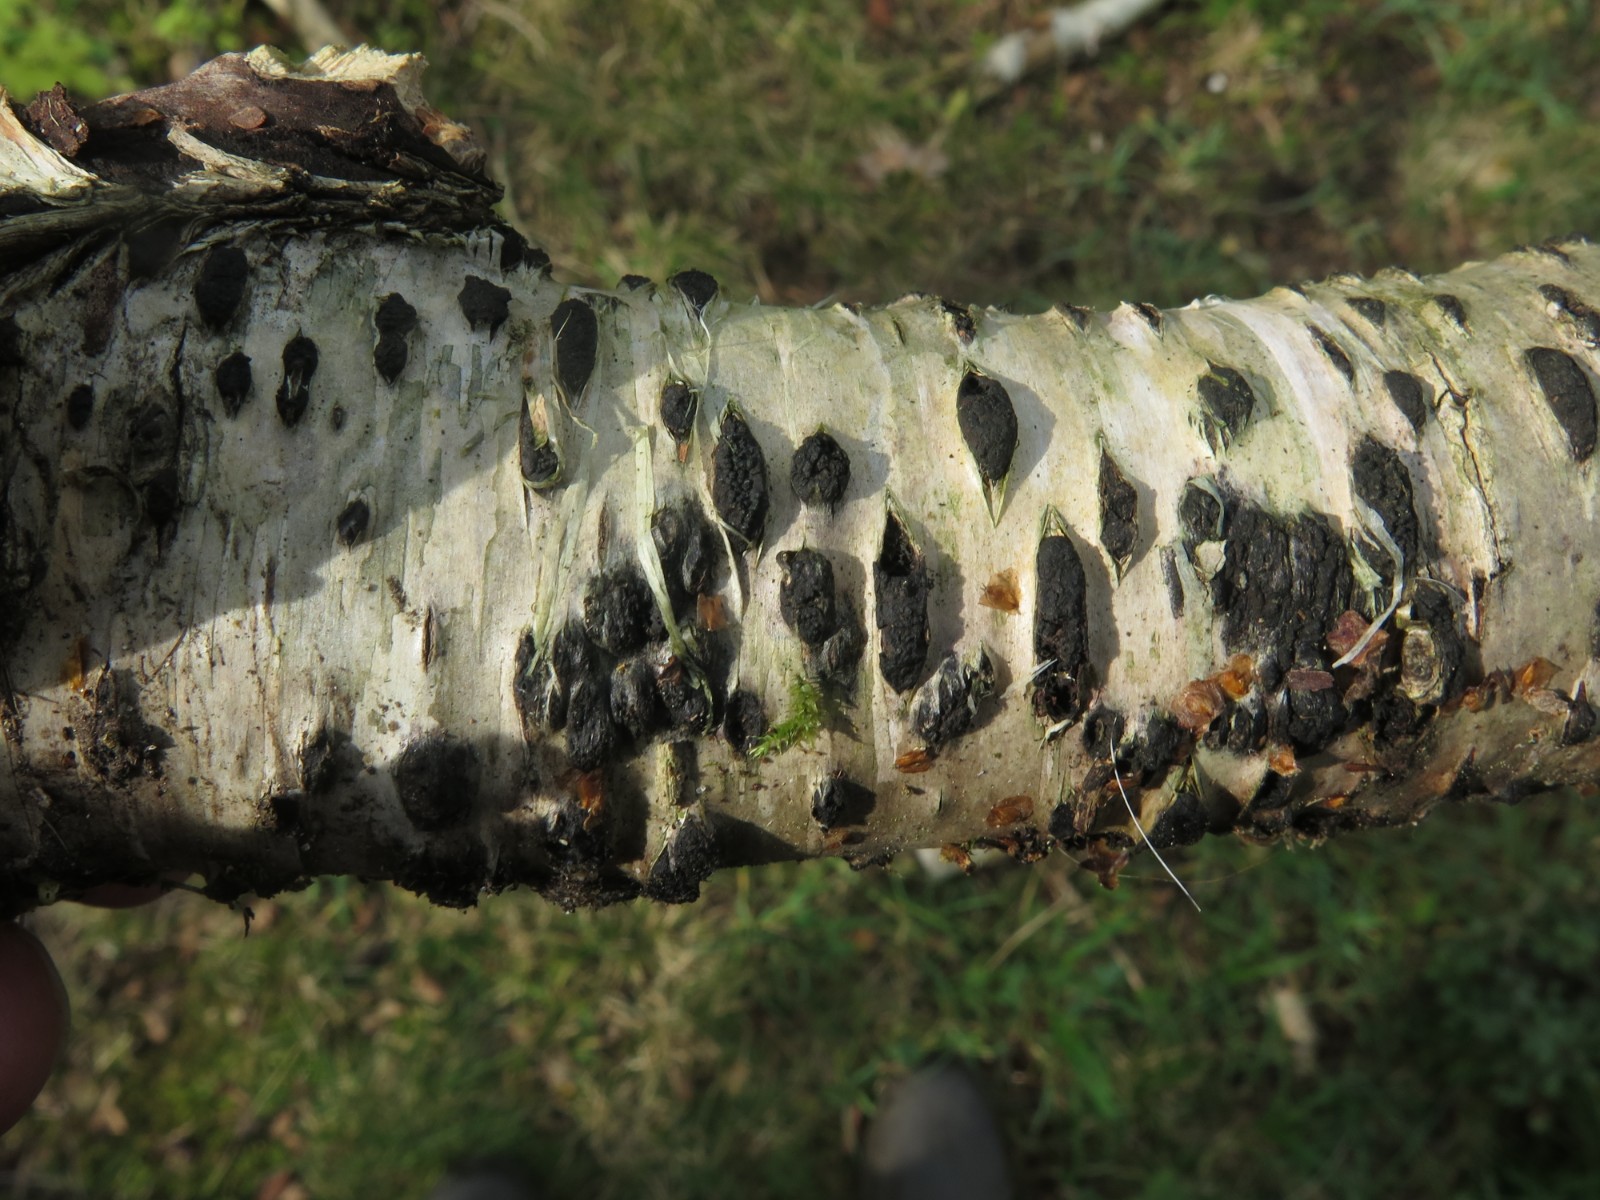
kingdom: Fungi
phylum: Ascomycota
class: Sordariomycetes
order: Xylariales
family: Diatrypaceae
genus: Diatrypella
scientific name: Diatrypella favacea
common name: Birch blackhead
